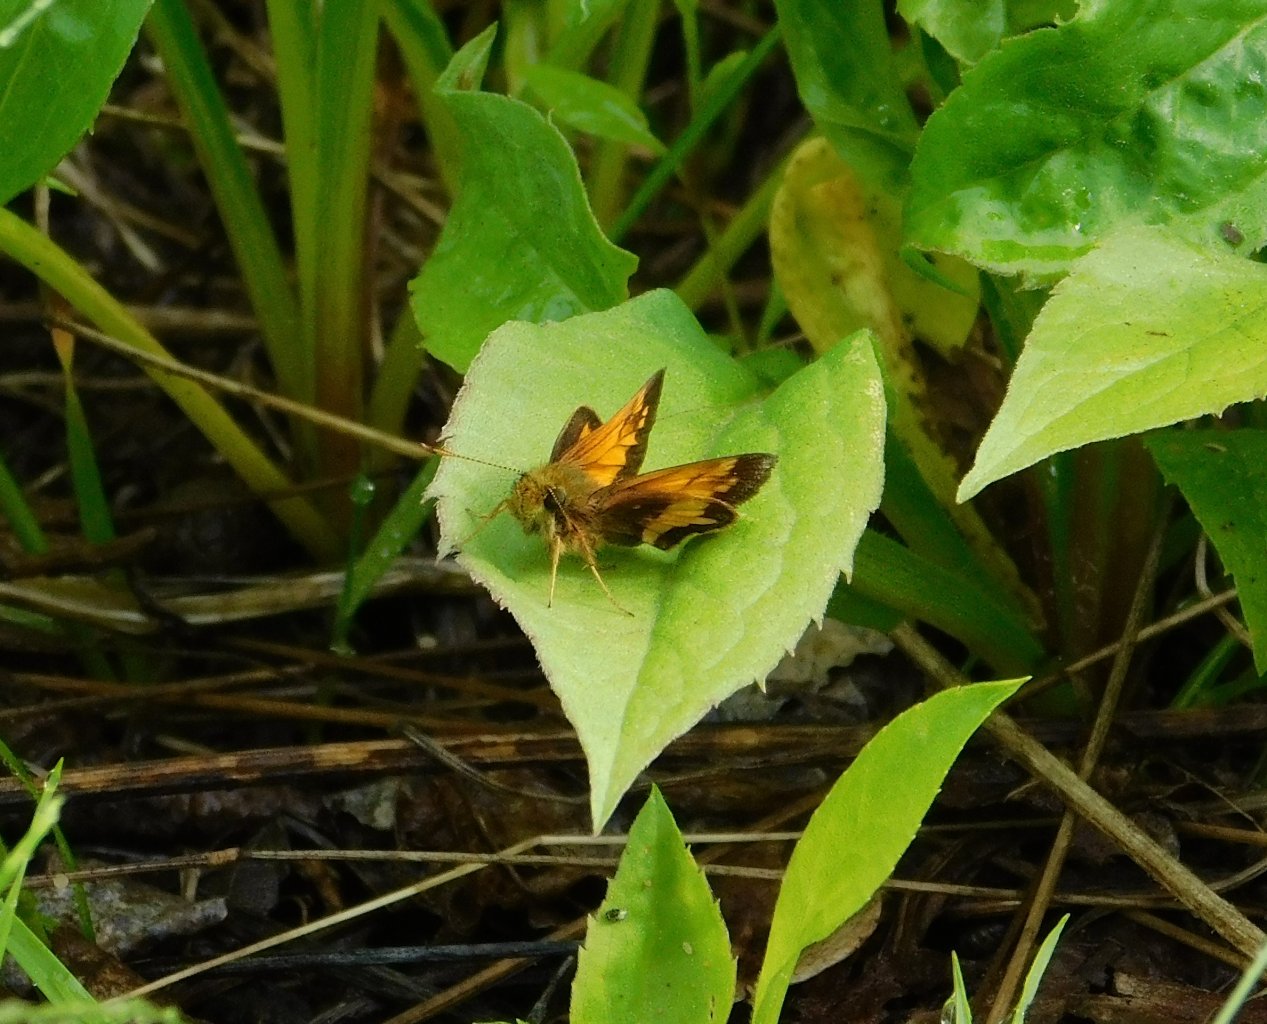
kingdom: Animalia
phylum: Arthropoda
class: Insecta
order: Lepidoptera
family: Hesperiidae
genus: Lon
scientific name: Lon hobomok
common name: Hobomok Skipper
